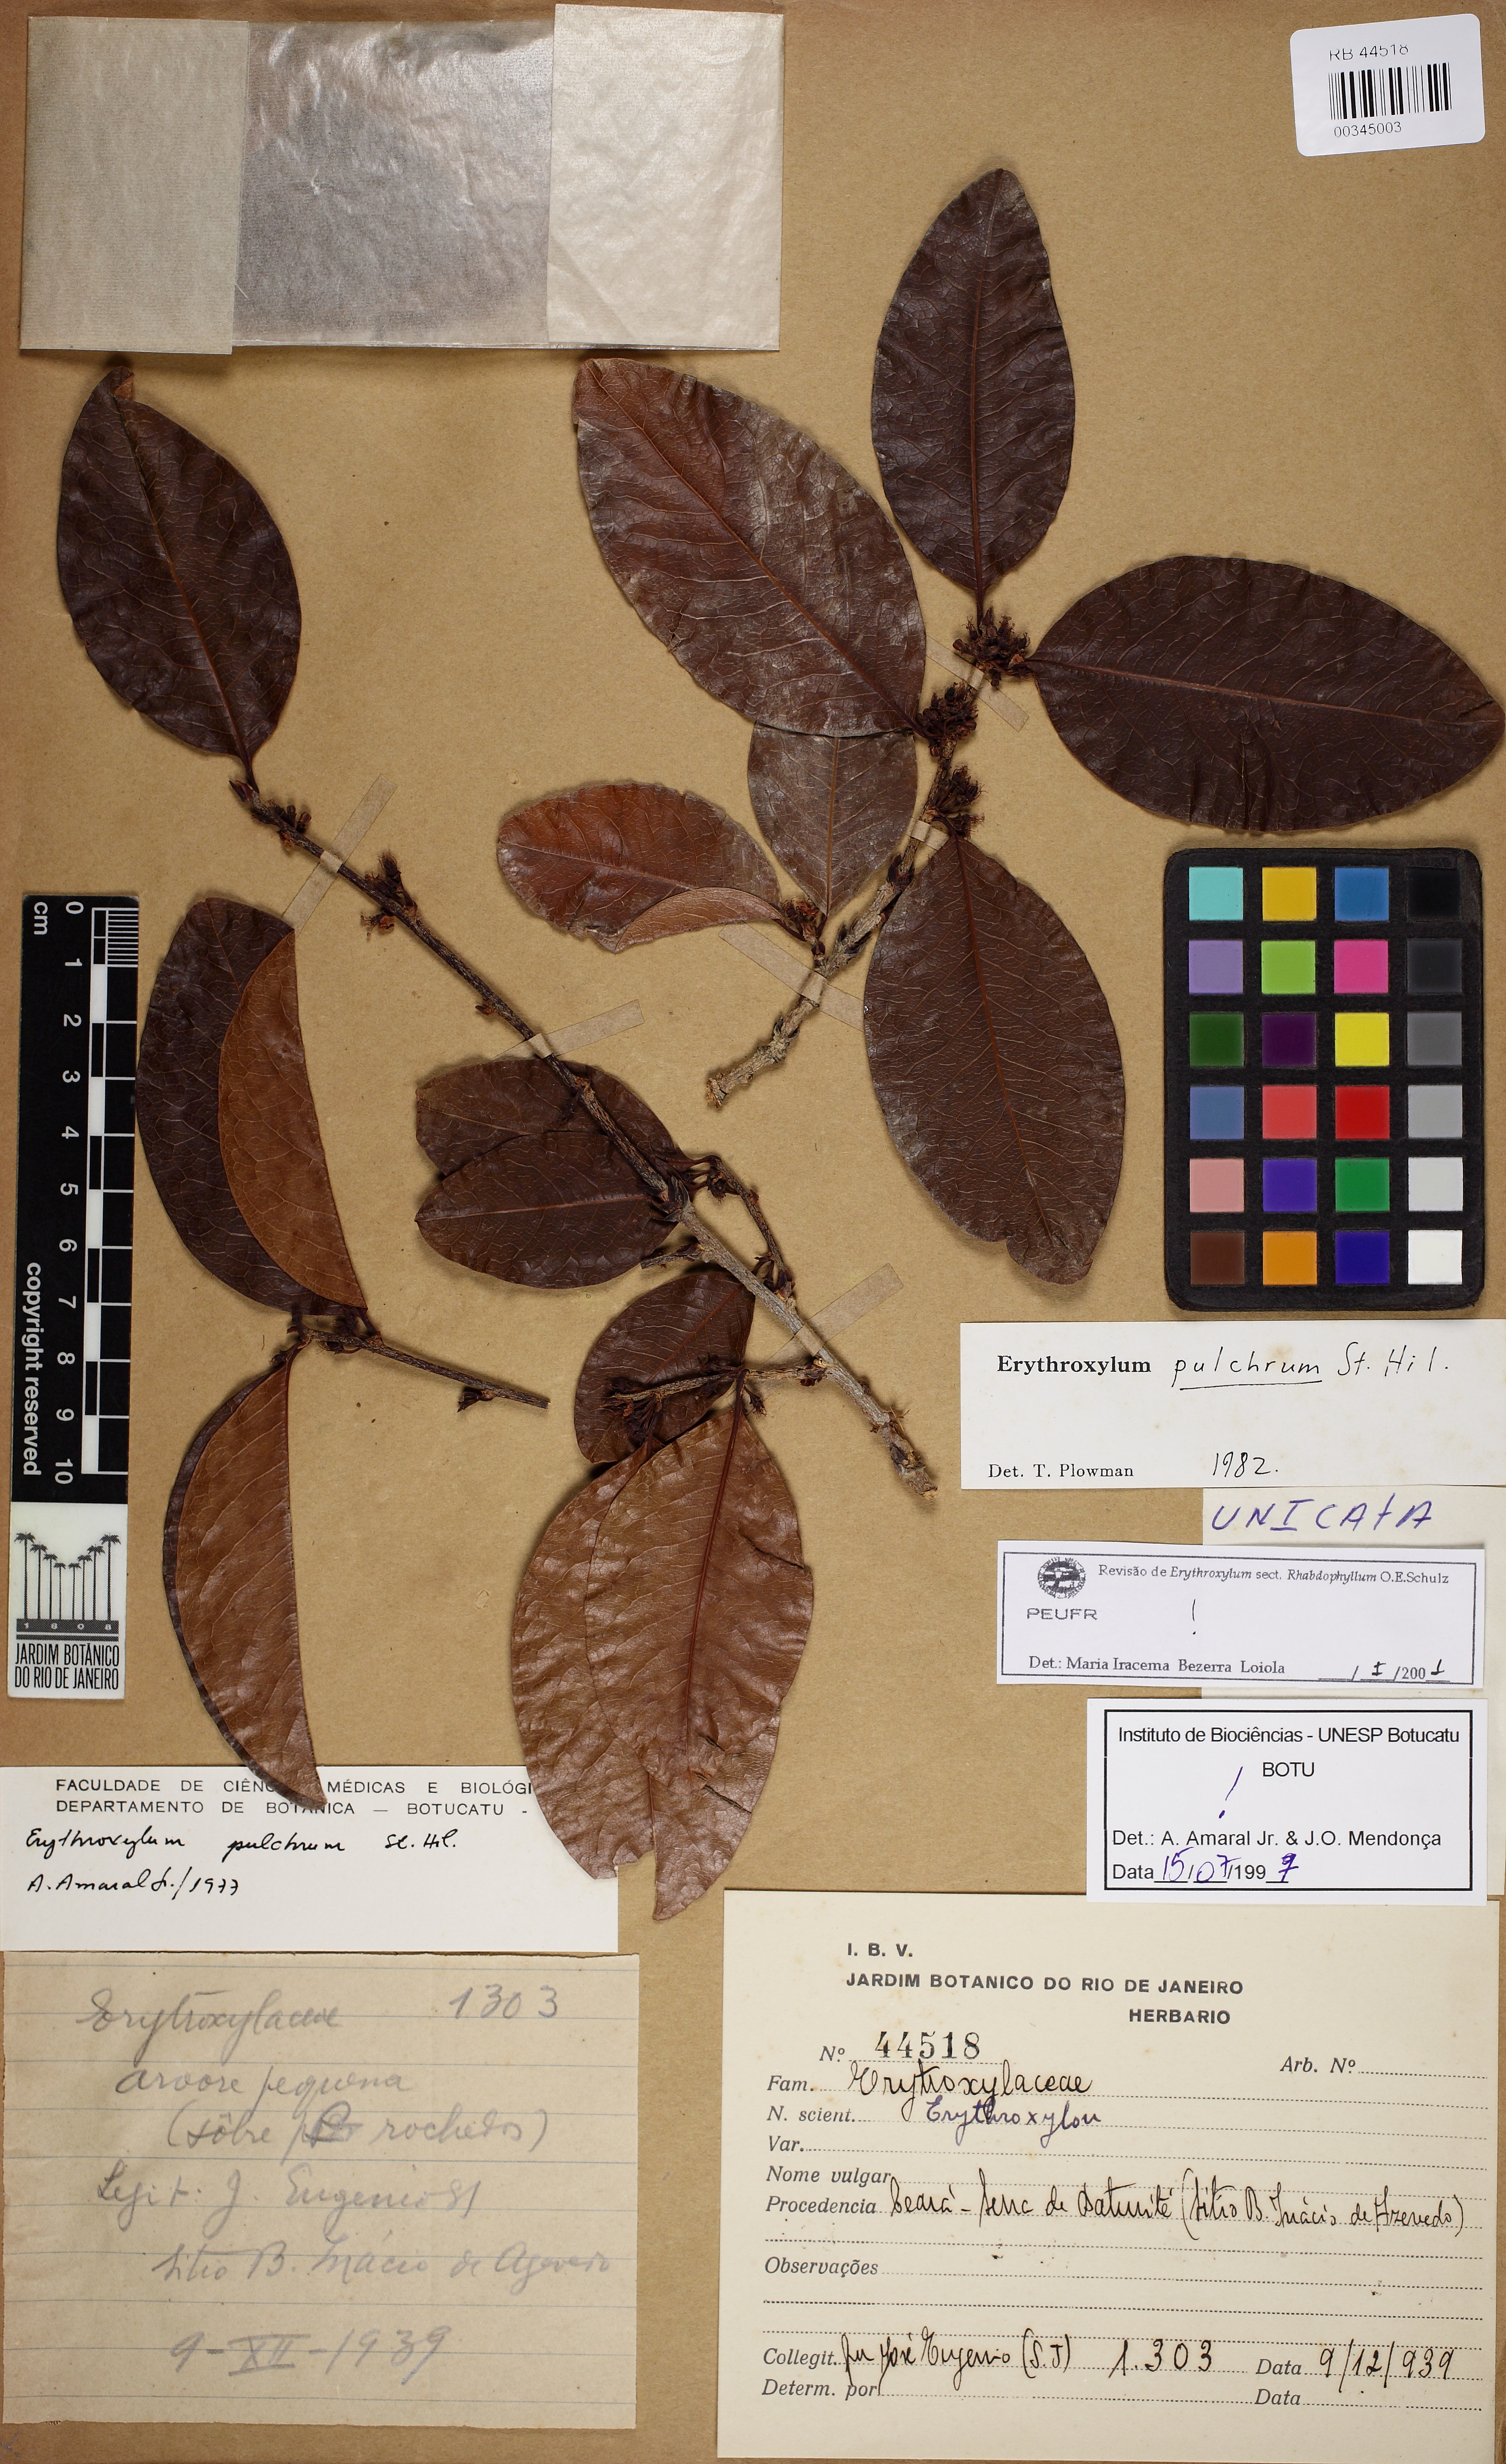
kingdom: Plantae
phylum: Tracheophyta
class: Magnoliopsida
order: Malpighiales
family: Erythroxylaceae
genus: Erythroxylum
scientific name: Erythroxylum platyclados
